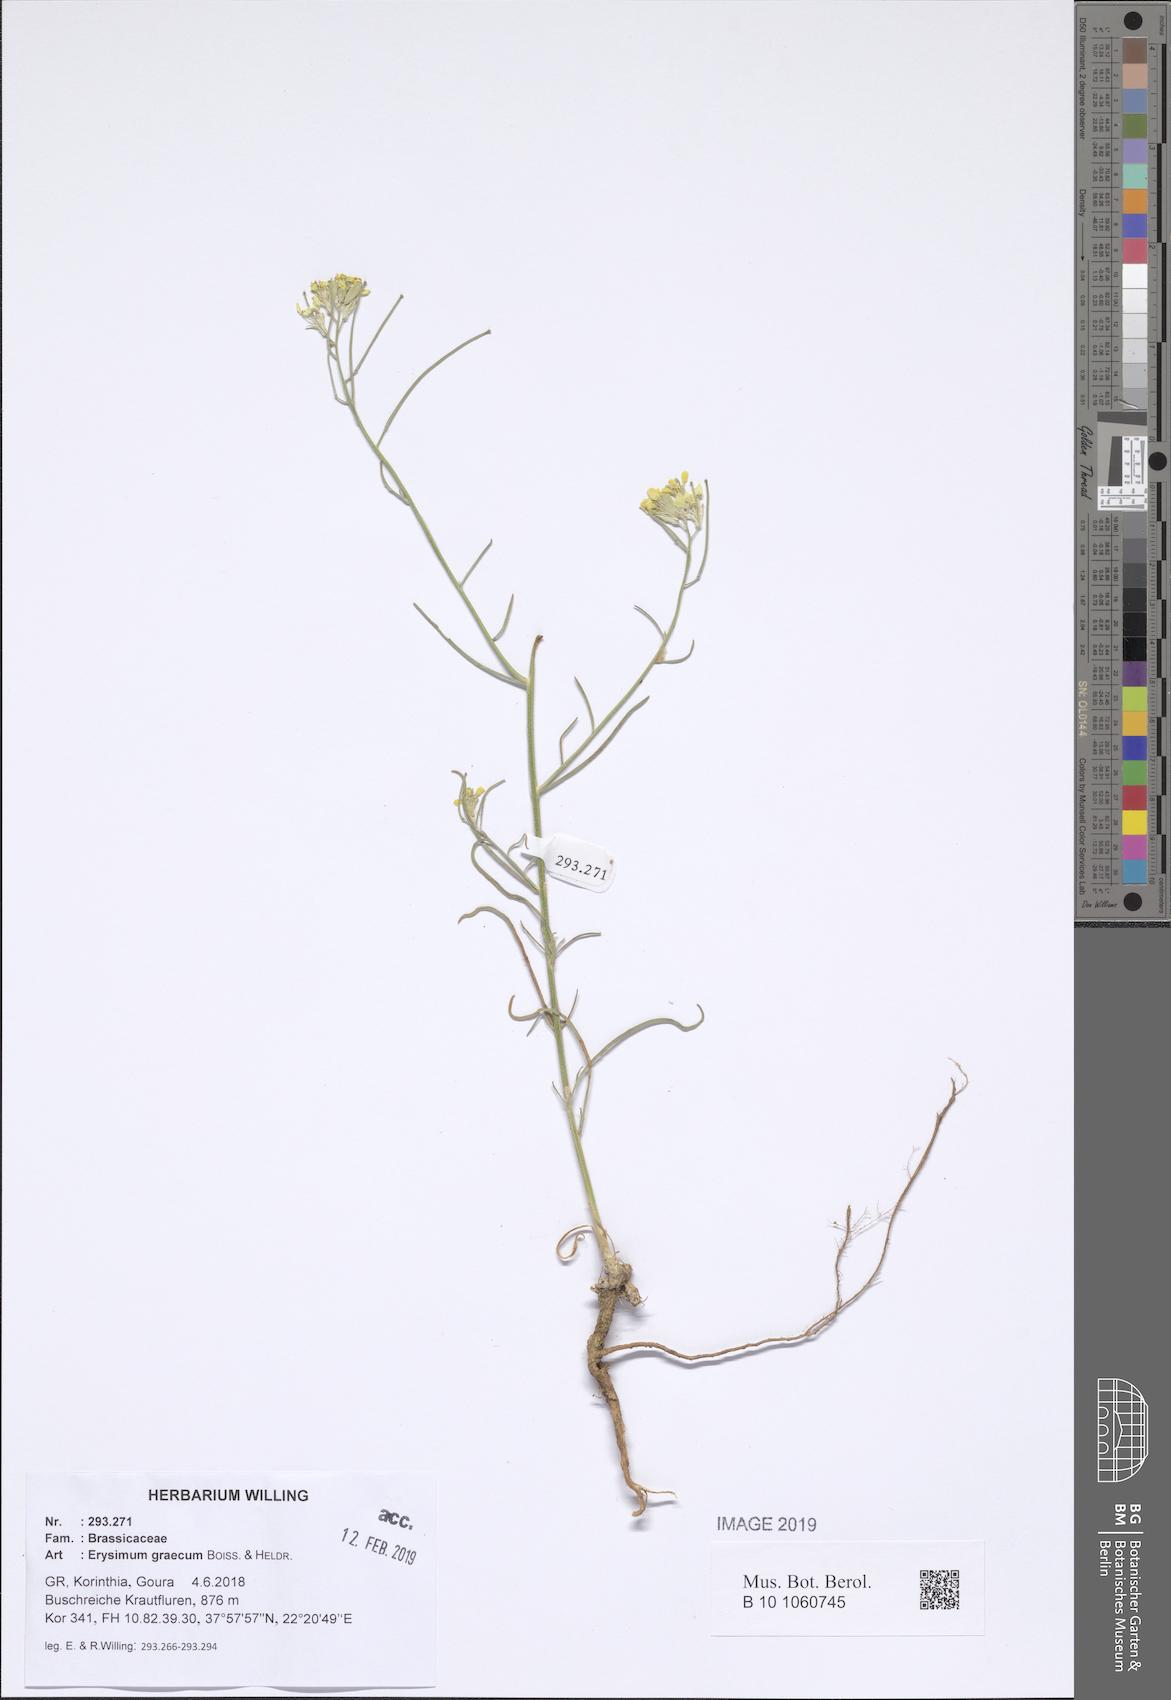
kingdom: Plantae
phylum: Tracheophyta
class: Magnoliopsida
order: Brassicales
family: Brassicaceae
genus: Erysimum
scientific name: Erysimum graecum
